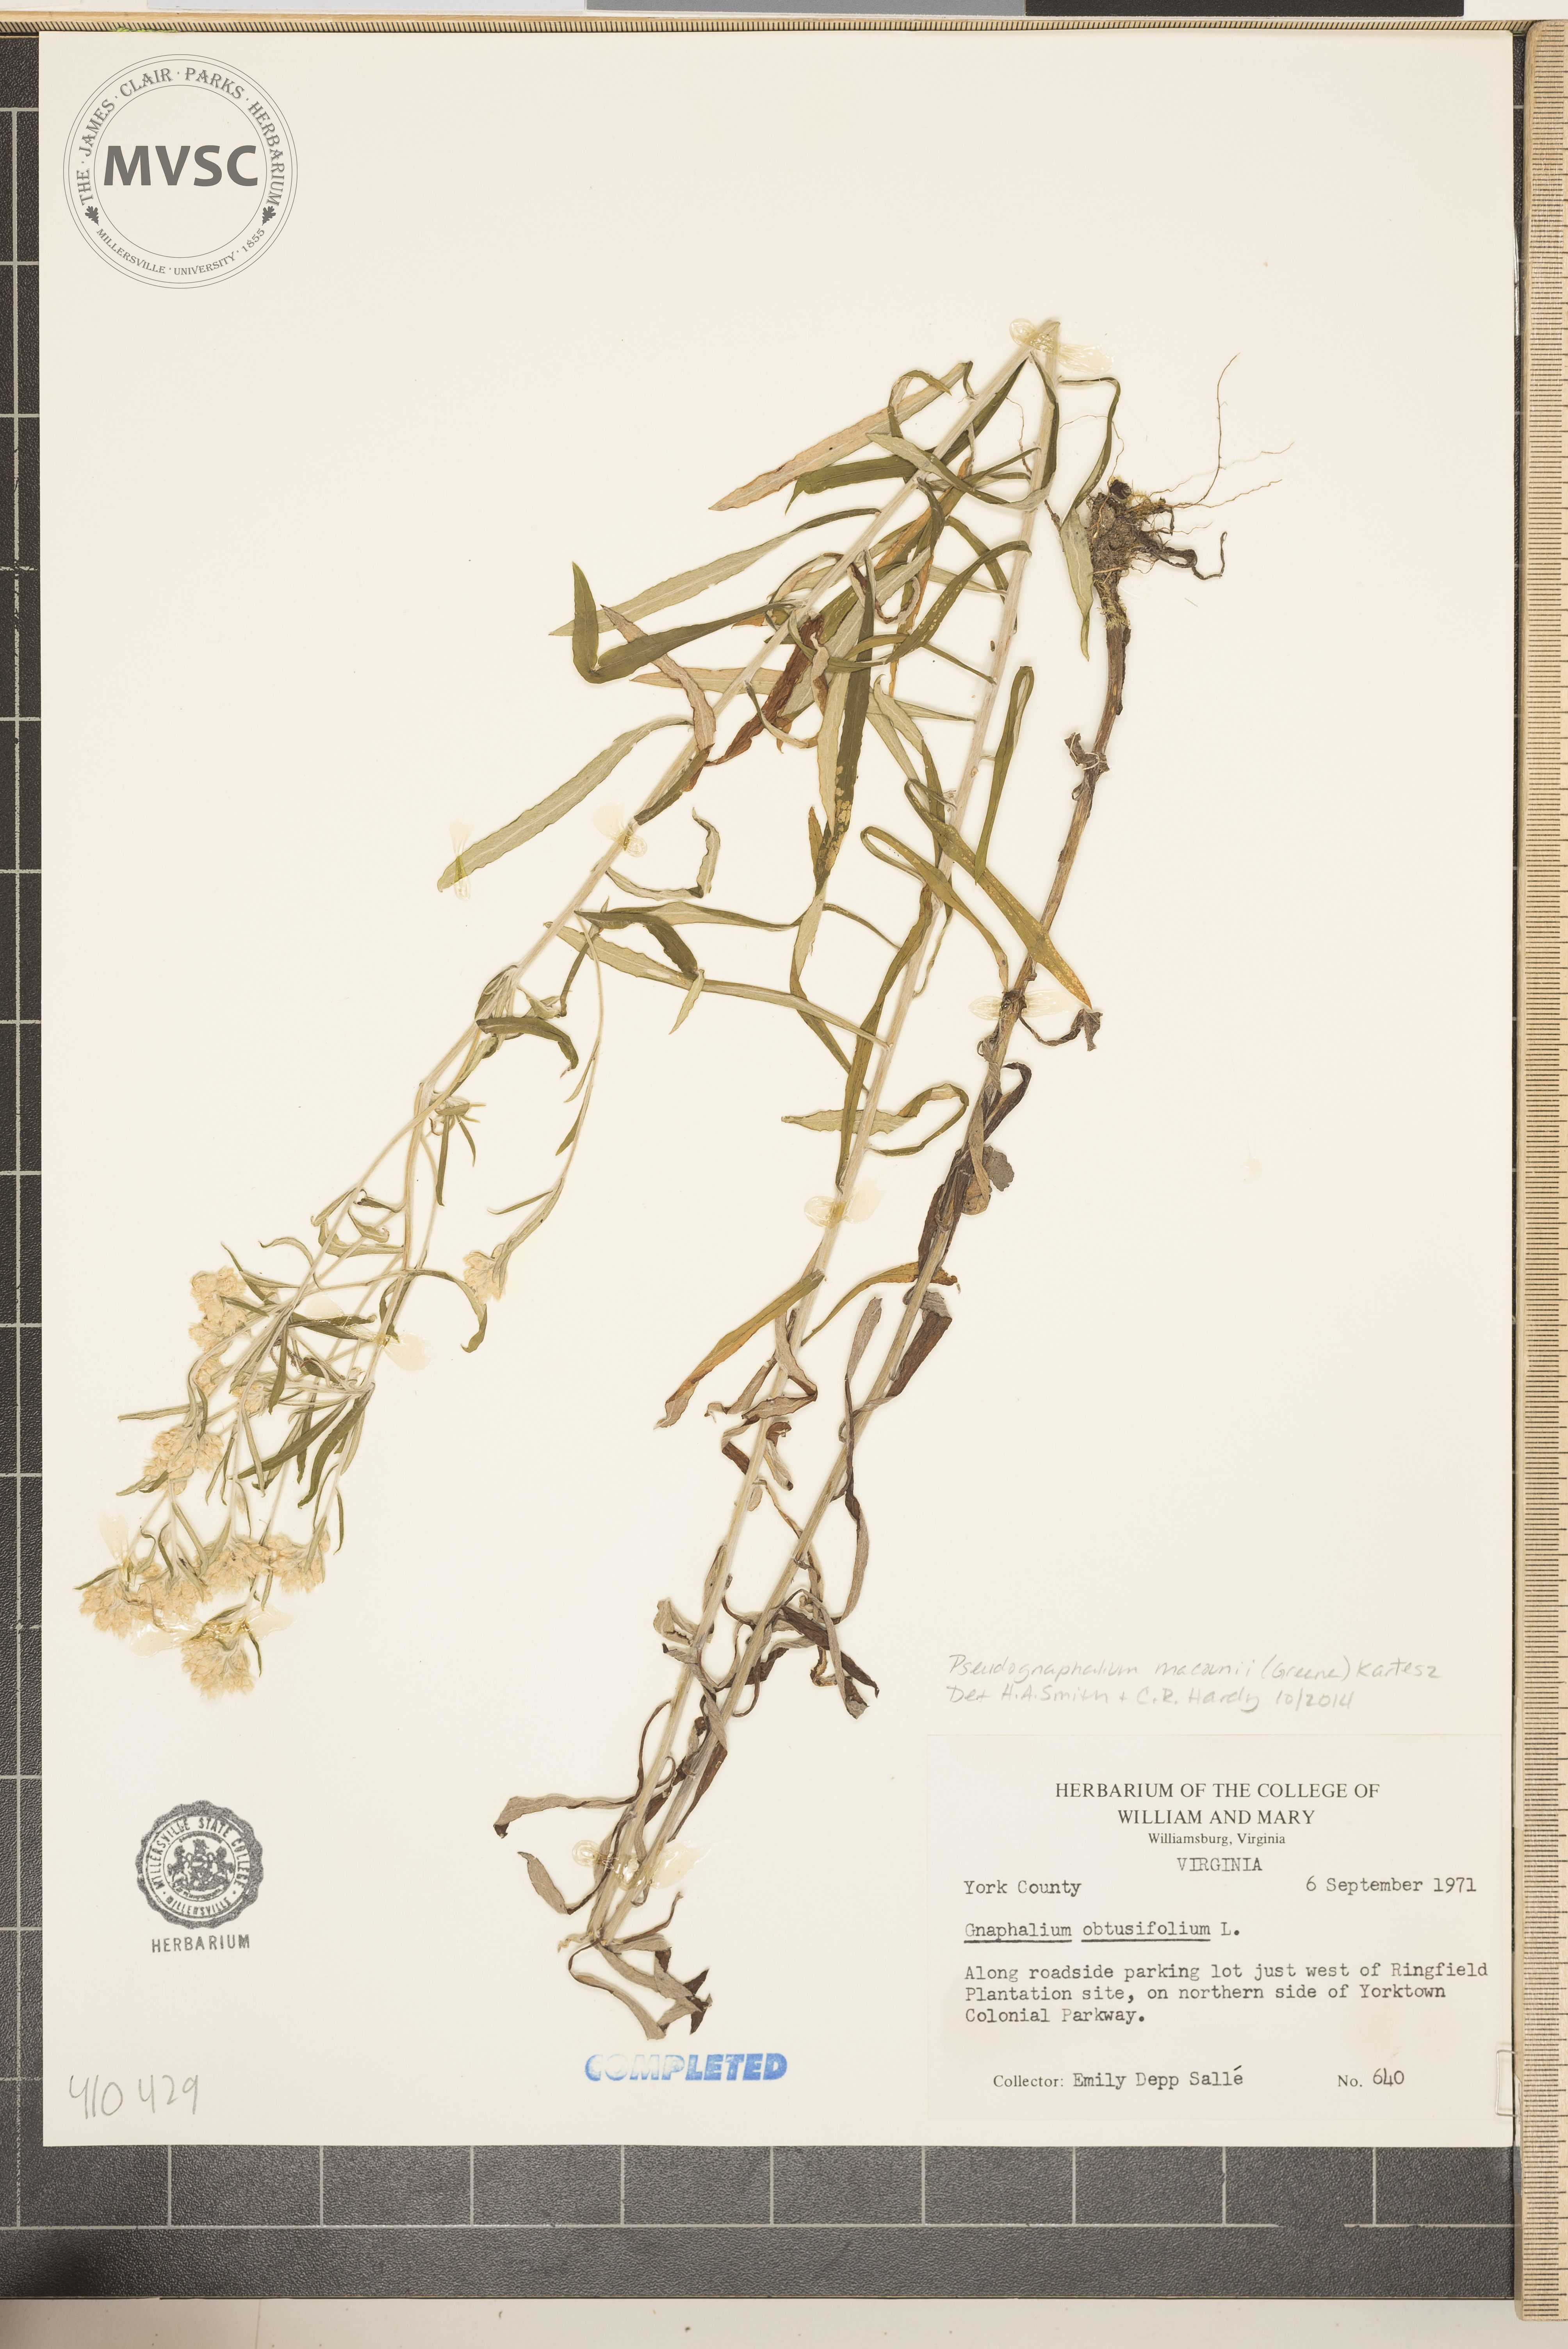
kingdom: Plantae
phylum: Tracheophyta
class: Magnoliopsida
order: Asterales
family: Asteraceae
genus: Pseudognaphalium
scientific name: Pseudognaphalium obtusifolium
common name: Fragrant cudweed
